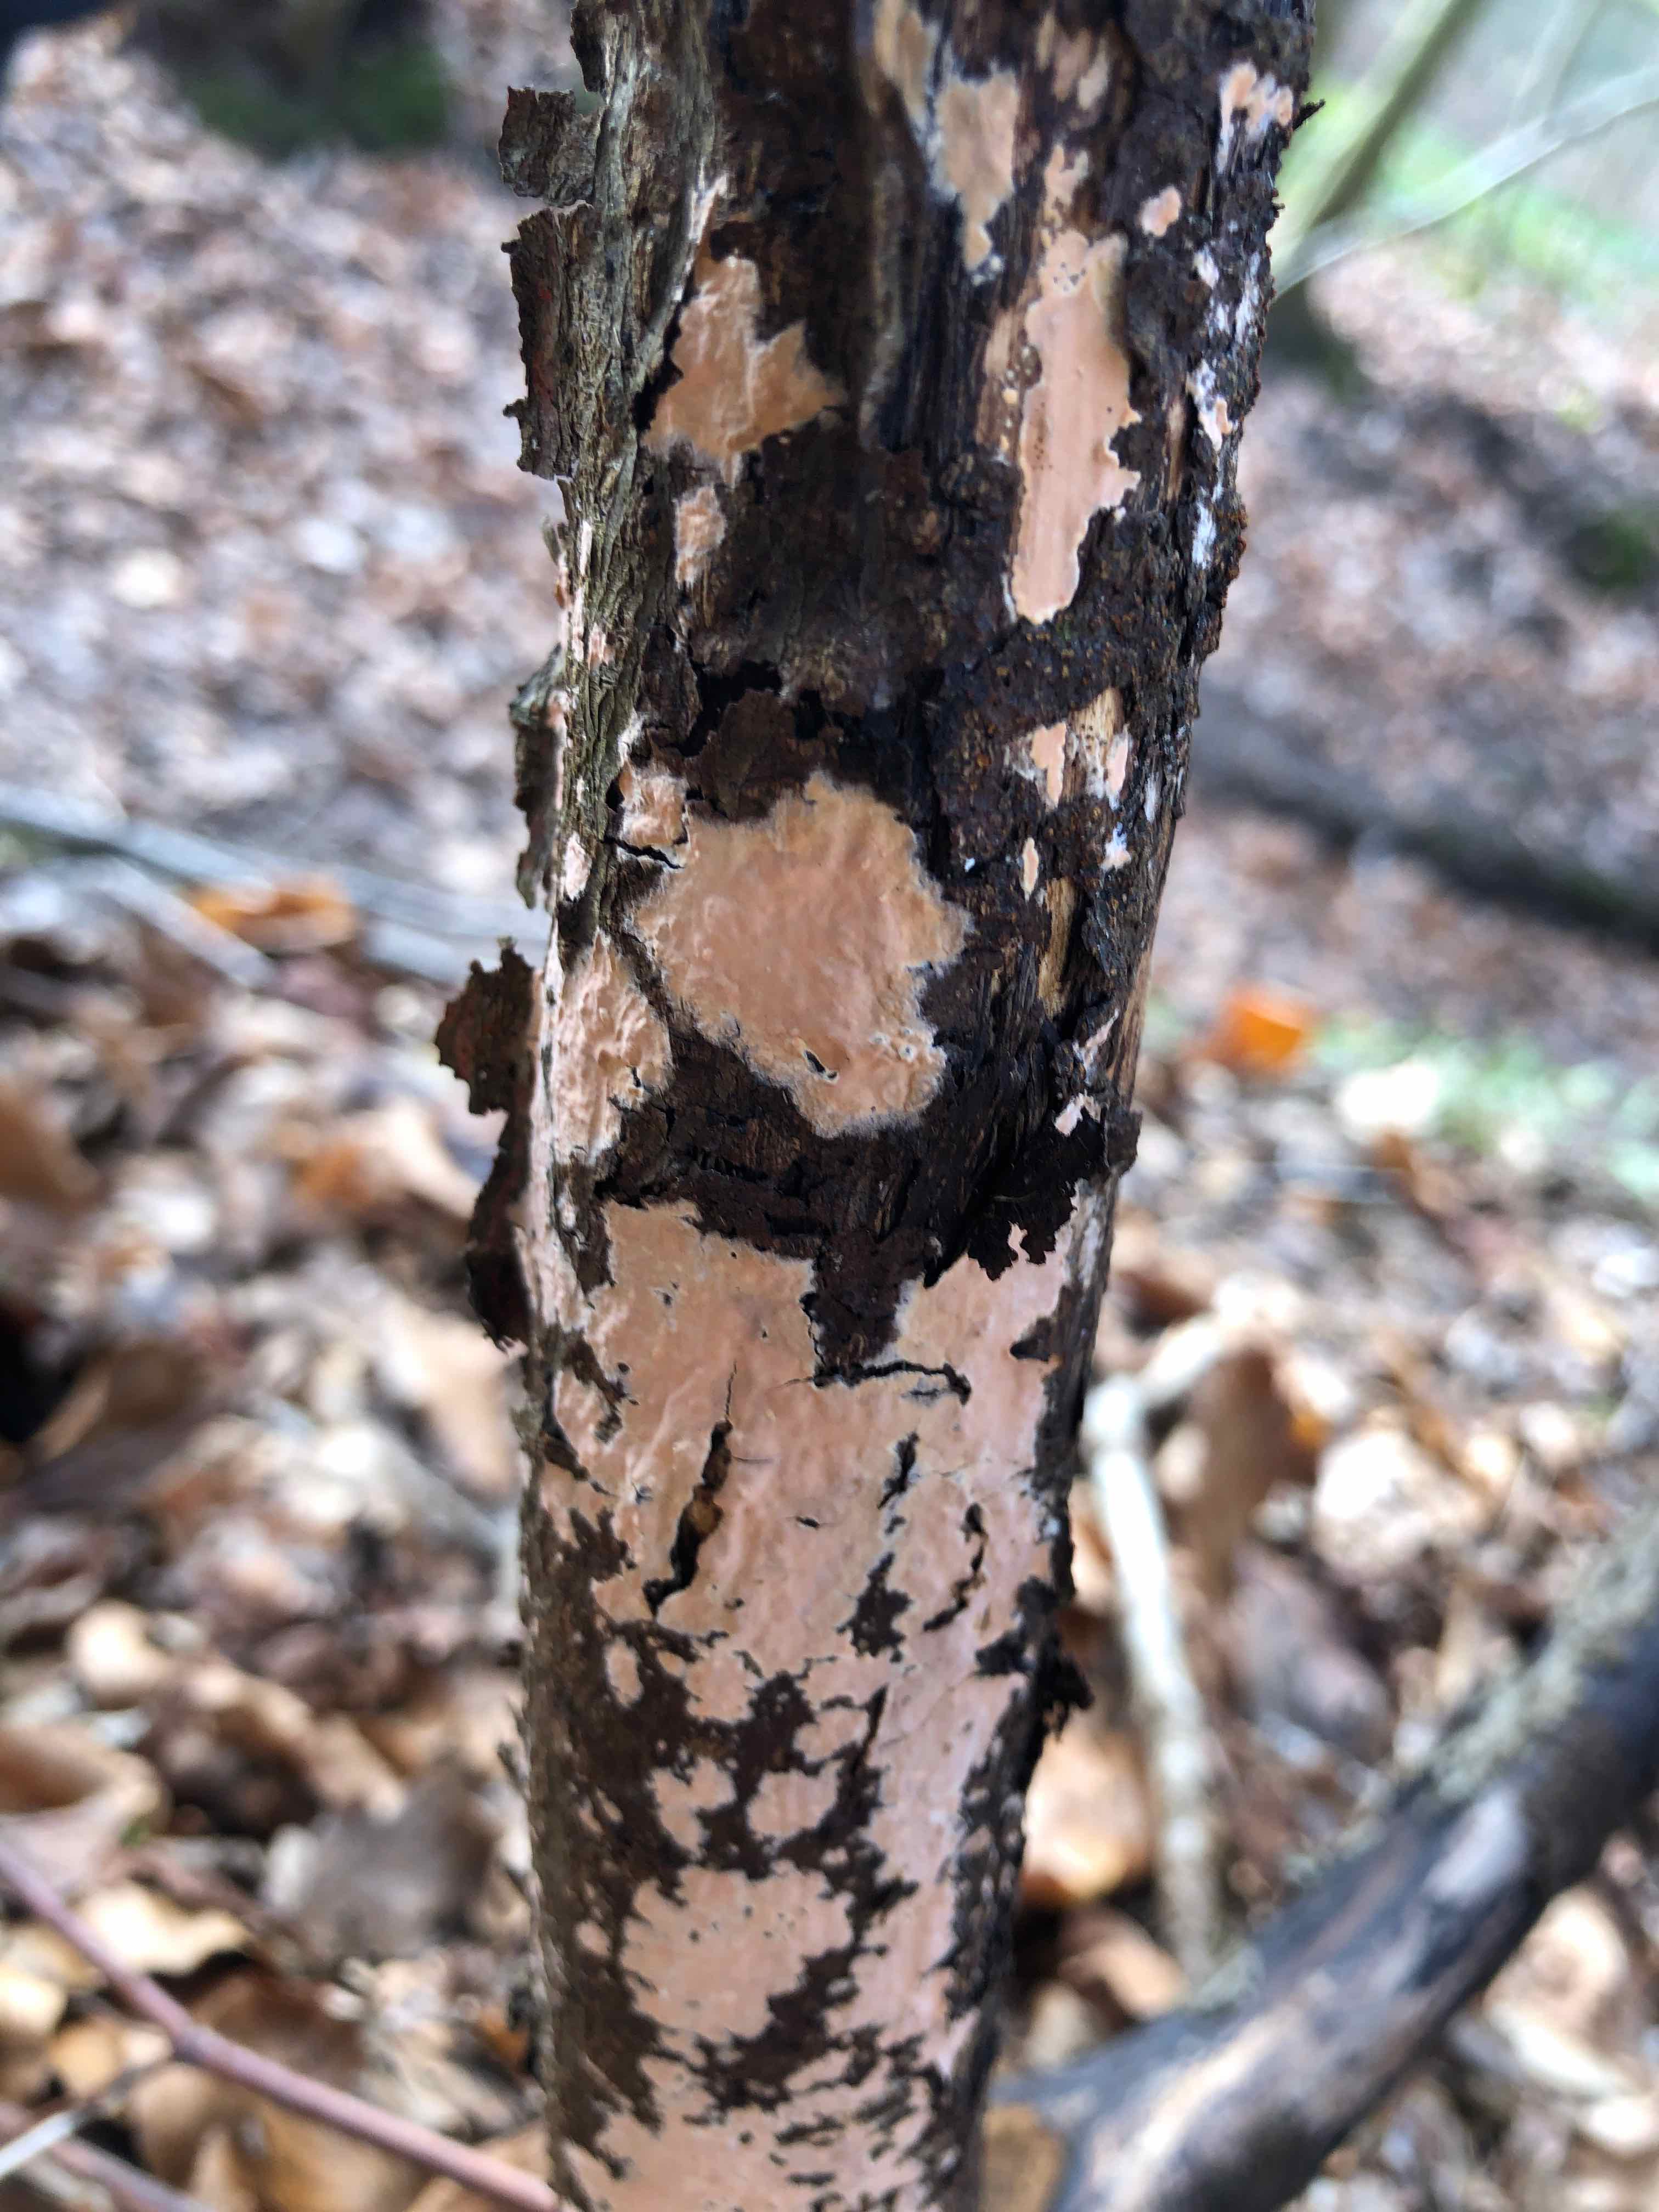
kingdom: Fungi
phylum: Basidiomycota
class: Agaricomycetes
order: Russulales
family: Peniophoraceae
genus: Peniophora
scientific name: Peniophora incarnata
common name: laksefarvet voksskind
